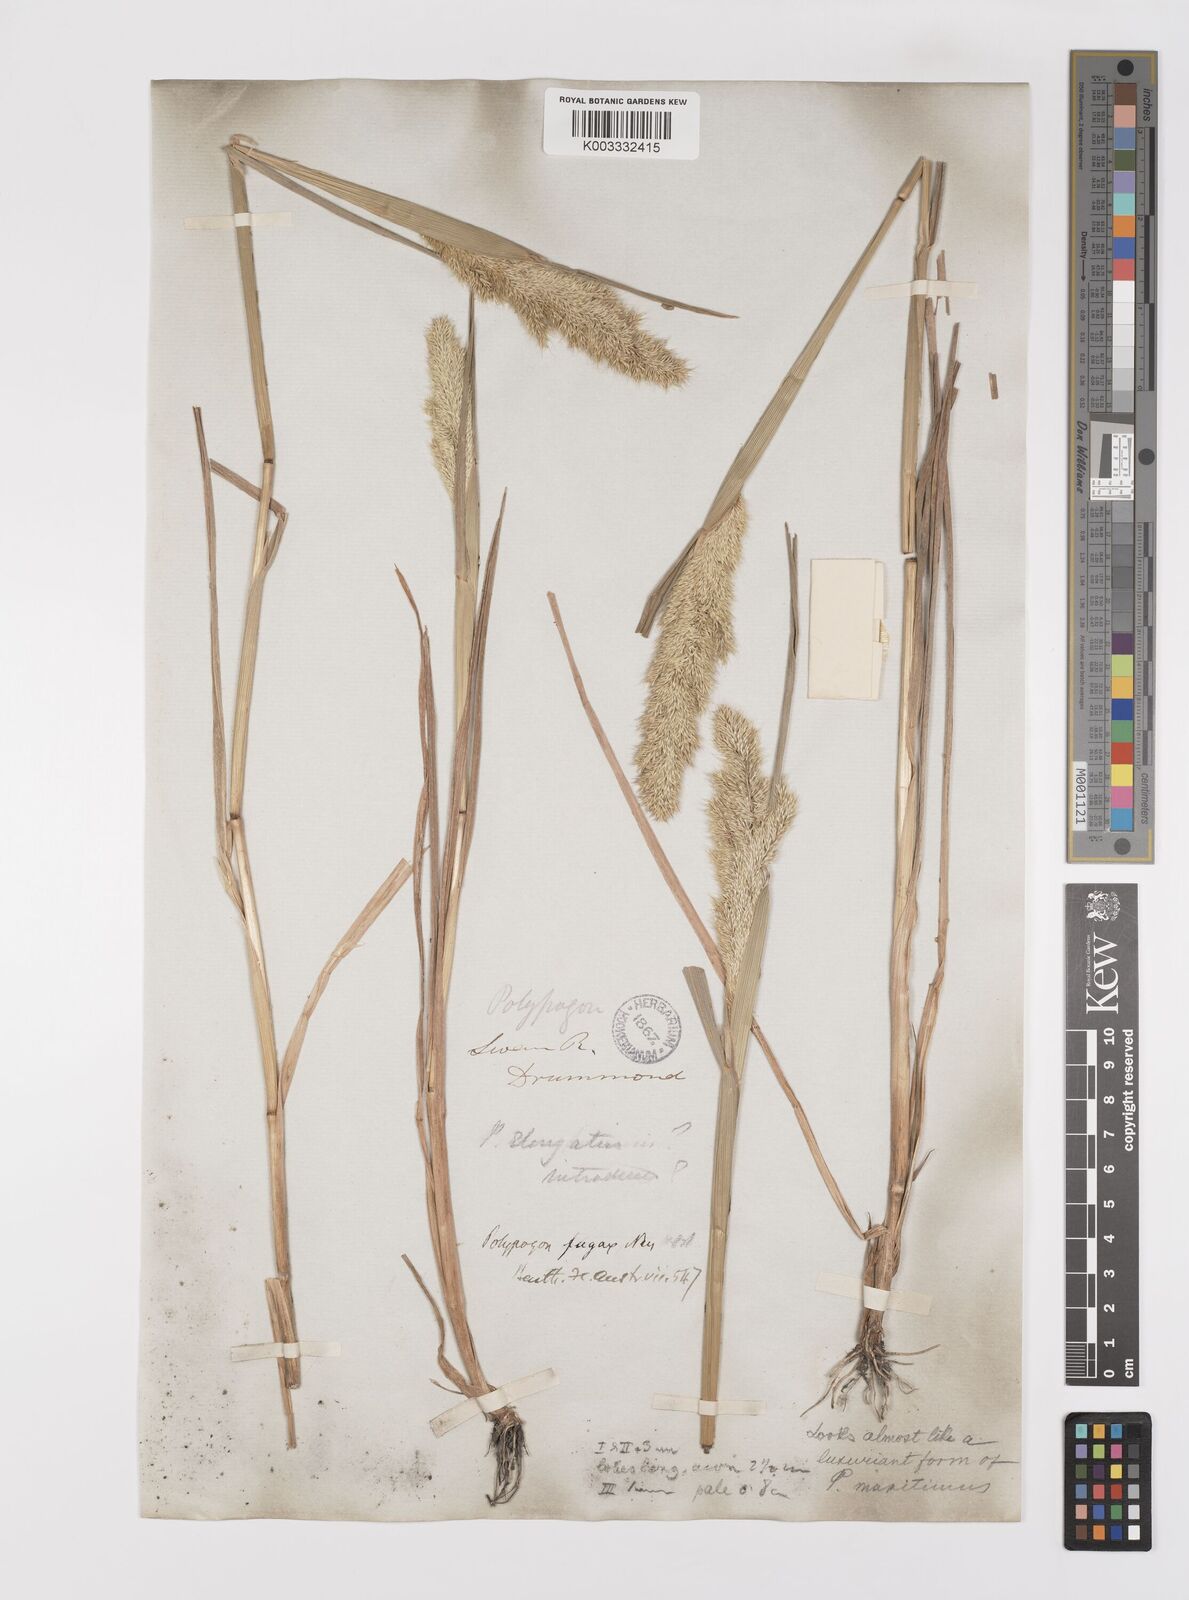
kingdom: Plantae
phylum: Tracheophyta
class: Liliopsida
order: Poales
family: Poaceae
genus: Polypogon
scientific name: Polypogon fugax
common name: Asia minor bluegrass
